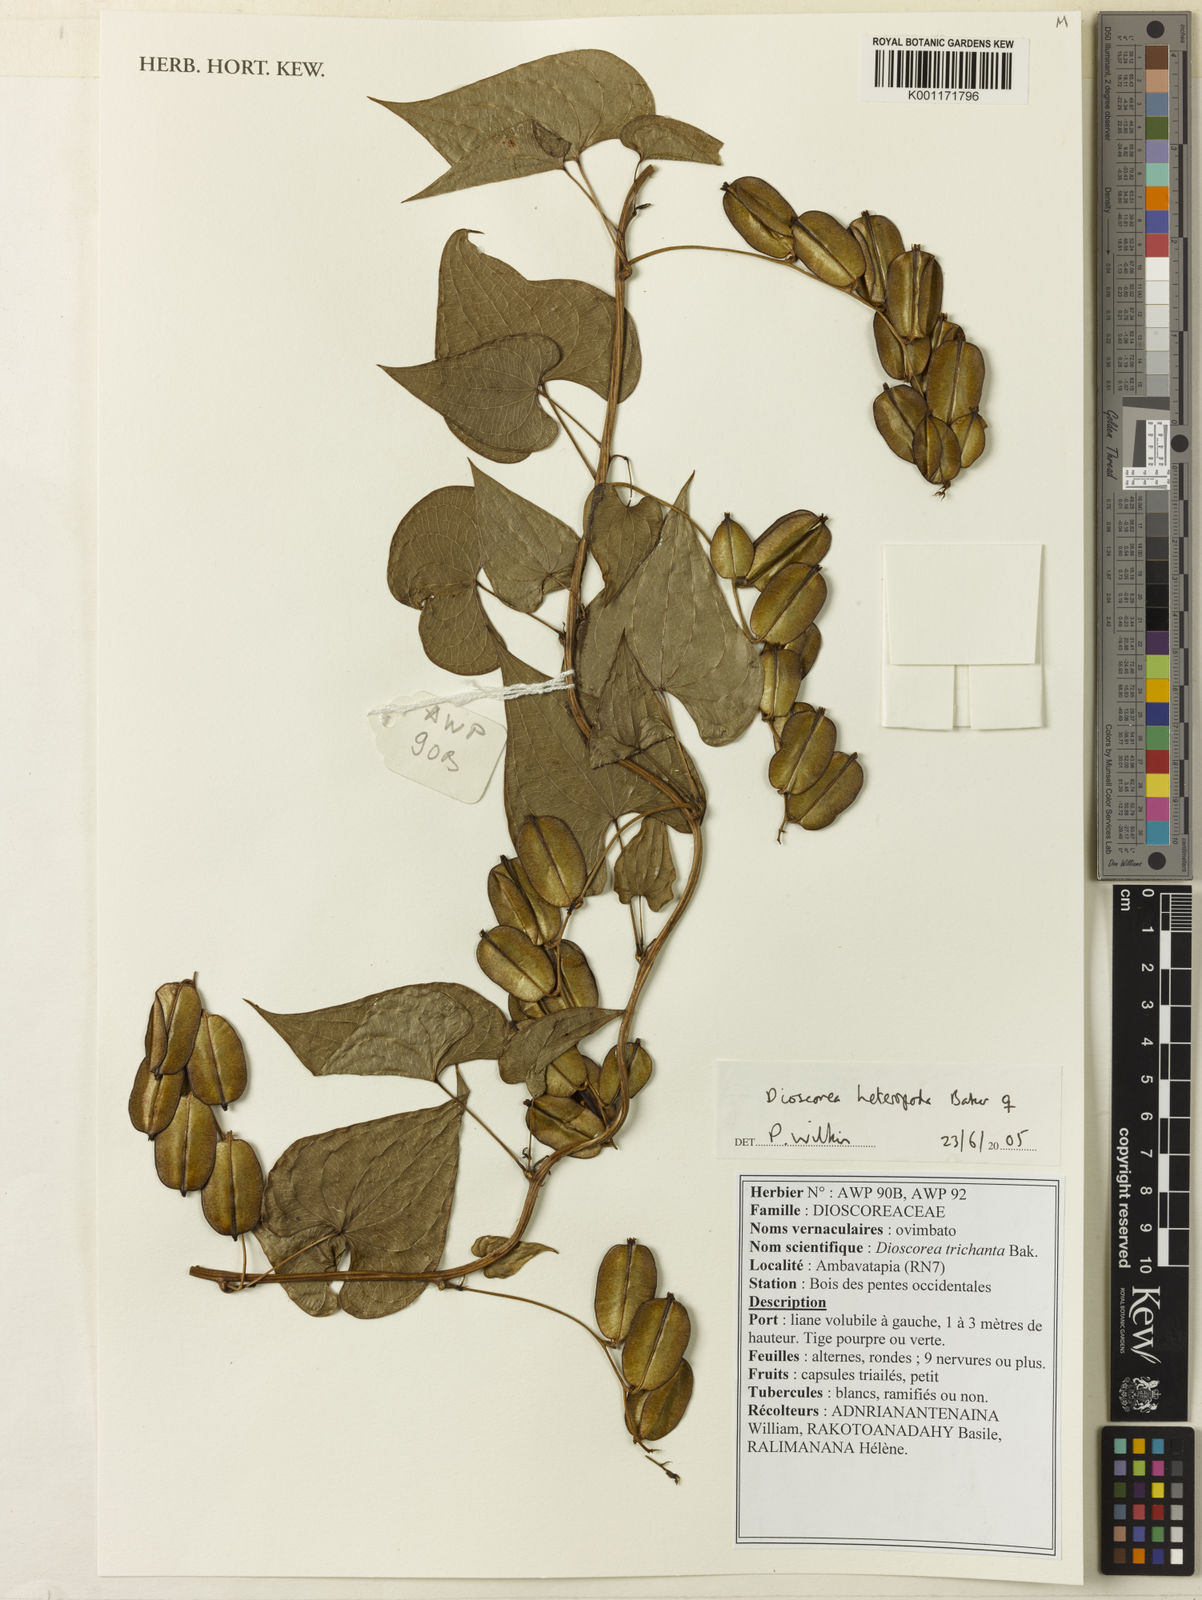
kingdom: Plantae
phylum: Tracheophyta
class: Liliopsida
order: Dioscoreales
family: Dioscoreaceae
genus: Dioscorea
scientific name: Dioscorea heteropoda
